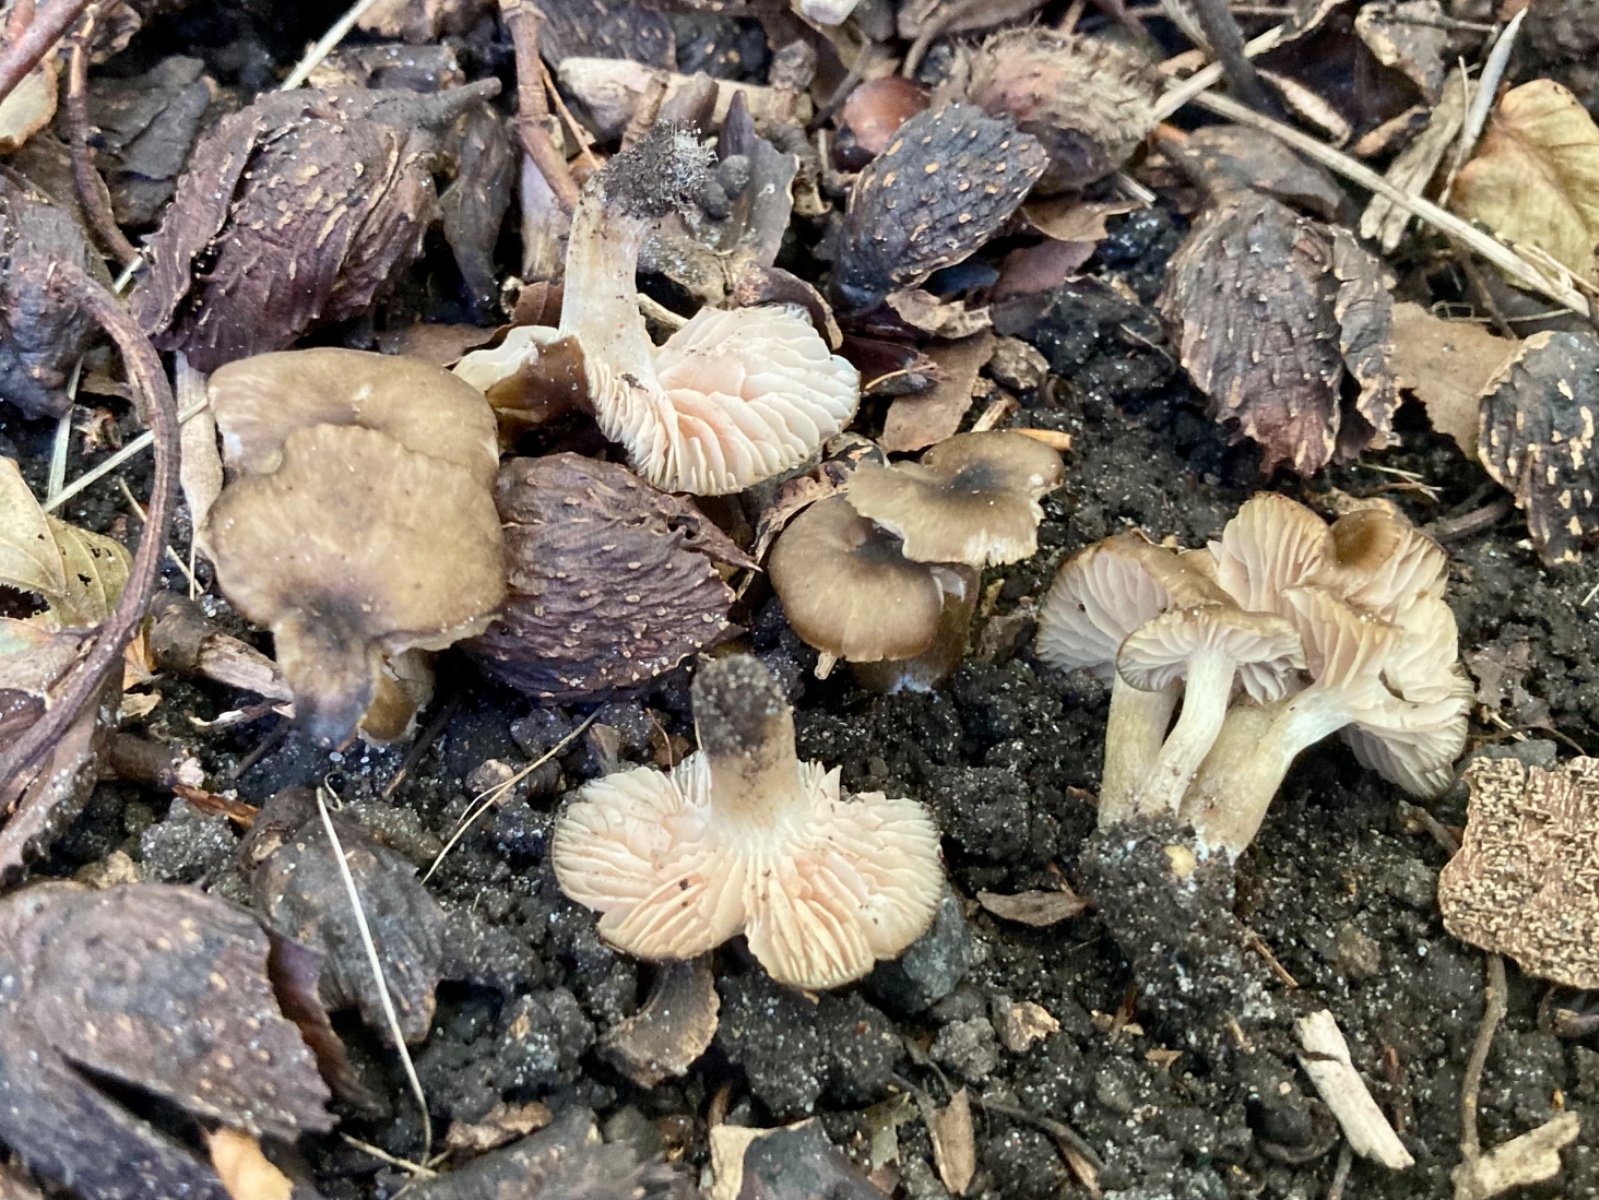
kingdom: Fungi
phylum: Basidiomycota
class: Agaricomycetes
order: Agaricales
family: Entolomataceae
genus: Entoloma
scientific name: Entoloma sordidulum
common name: smudsig rødblad
